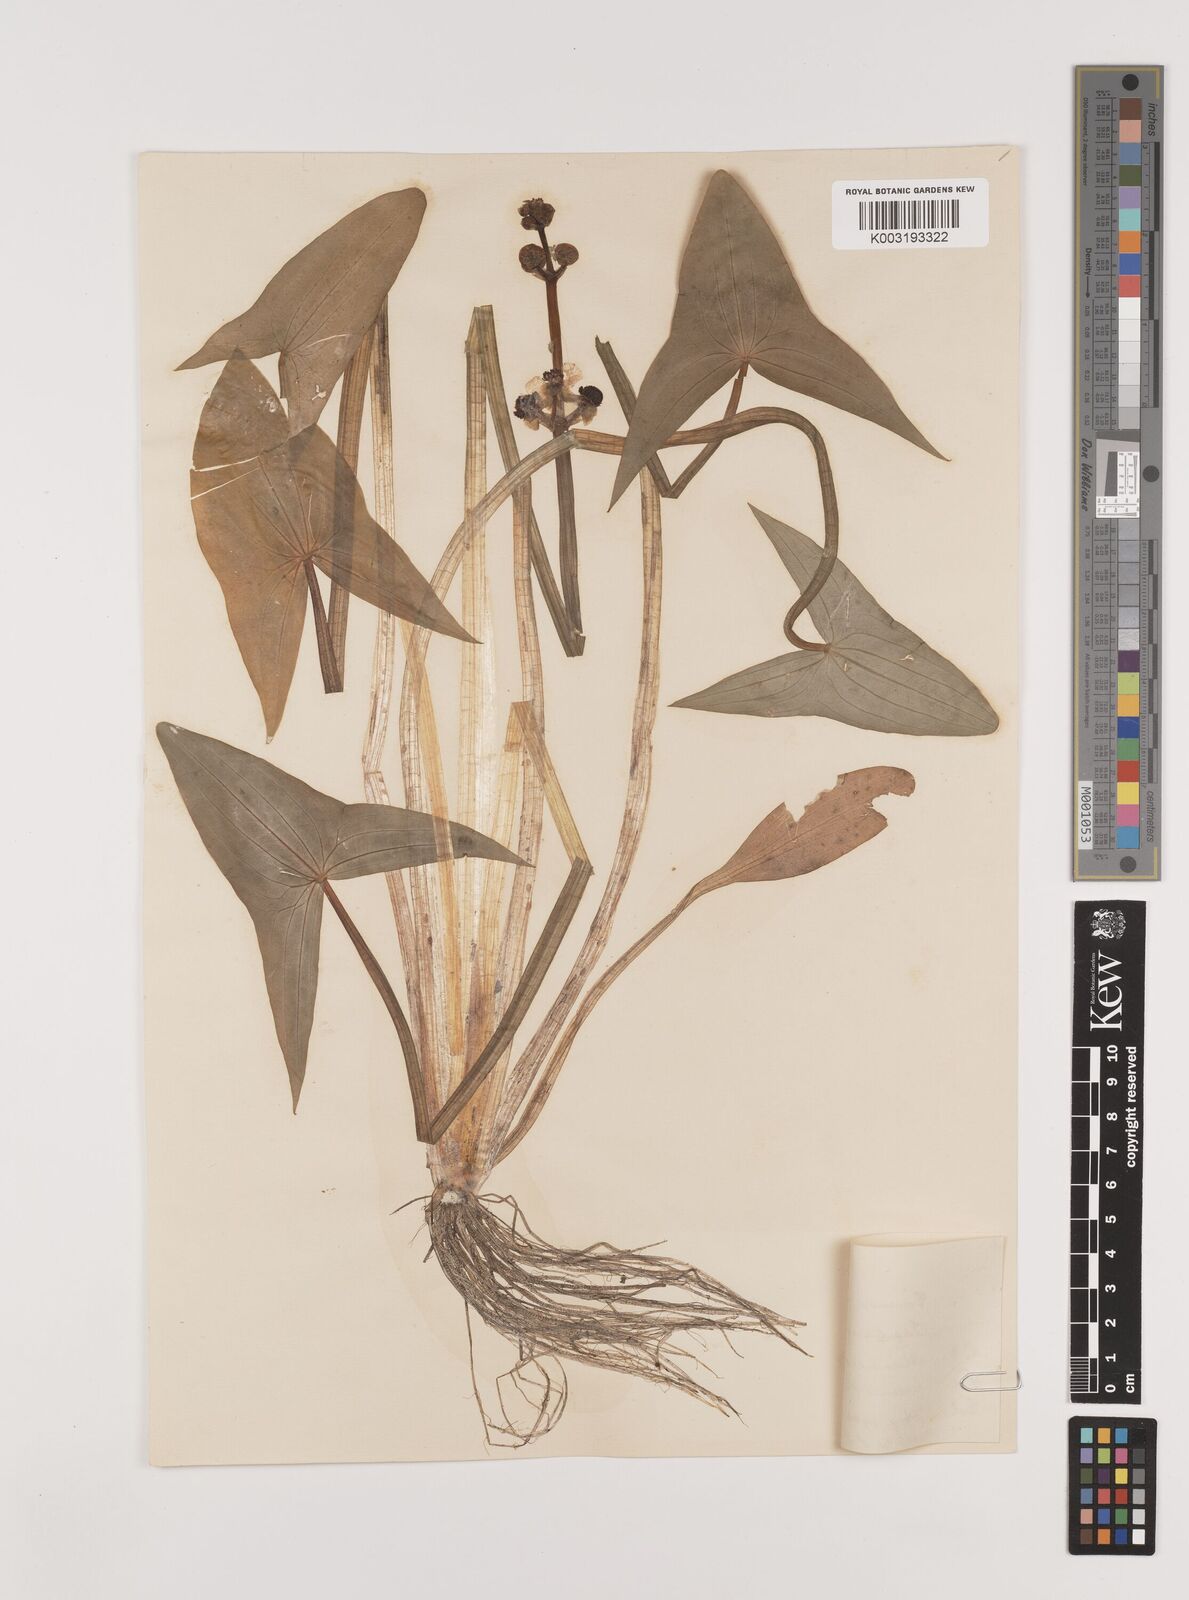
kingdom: Plantae
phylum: Tracheophyta
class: Liliopsida
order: Alismatales
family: Alismataceae
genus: Sagittaria
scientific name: Sagittaria sagittifolia
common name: Arrowhead
